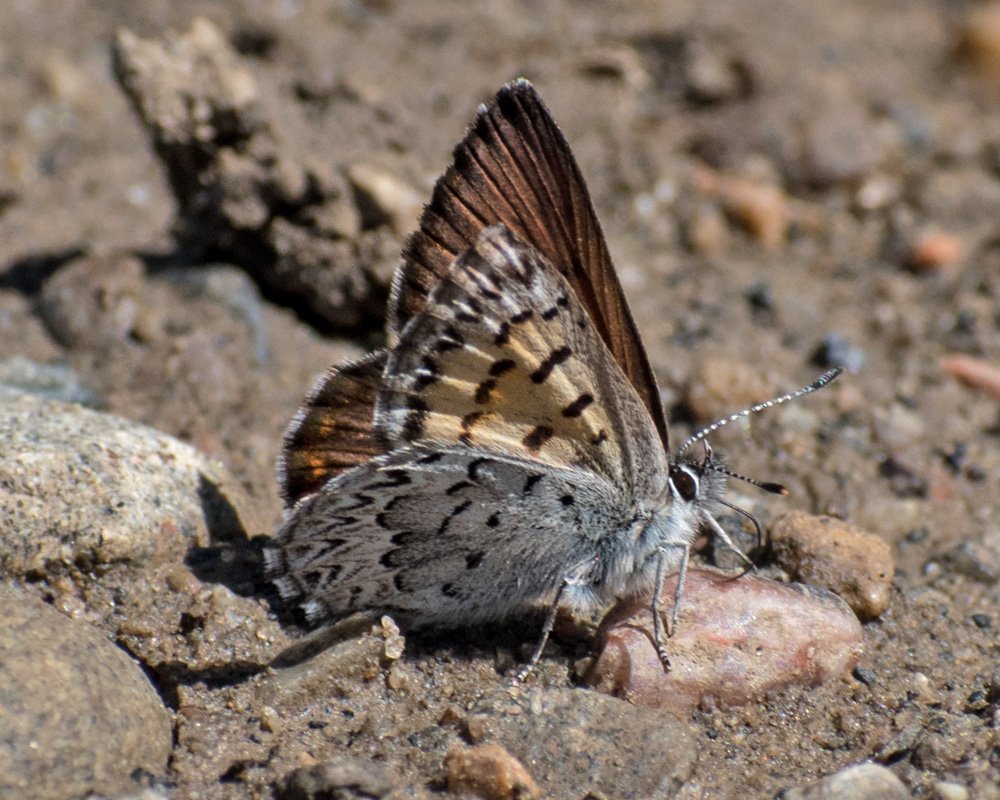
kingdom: Animalia
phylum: Arthropoda
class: Insecta
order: Lepidoptera
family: Lycaenidae
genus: Lycaena
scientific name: Lycaena mariposa
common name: Mariposa Copper
